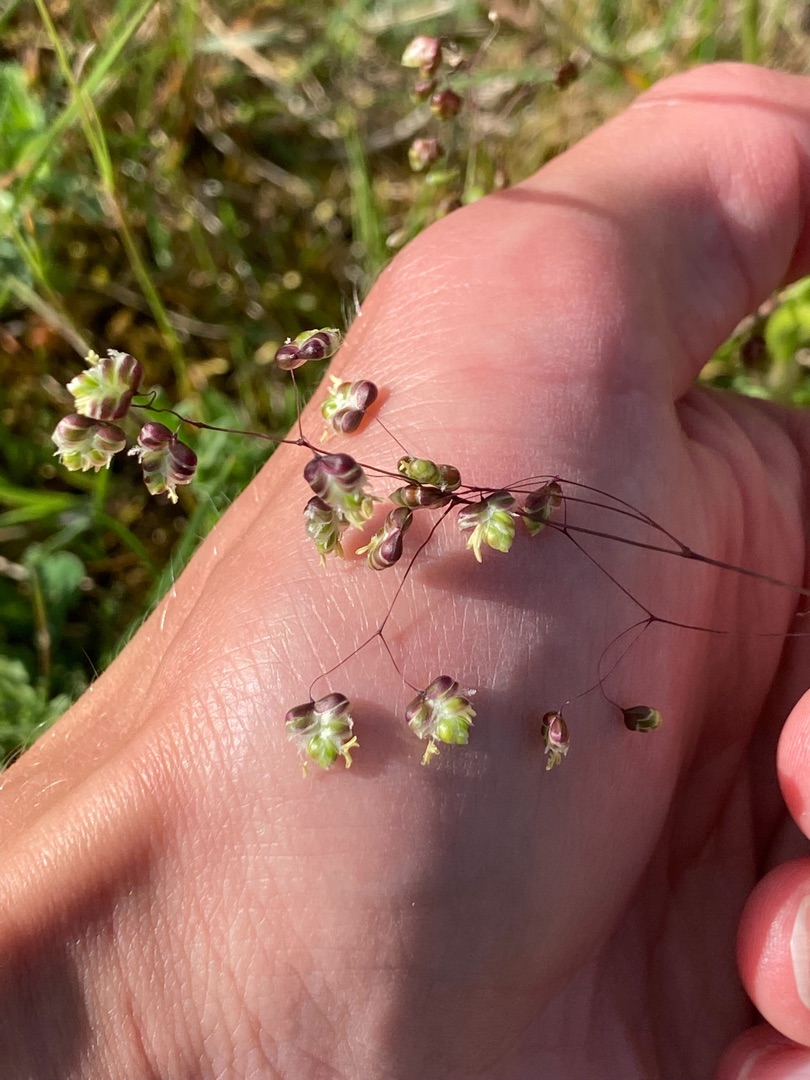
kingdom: Plantae
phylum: Tracheophyta
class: Liliopsida
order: Poales
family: Poaceae
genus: Briza
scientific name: Briza media
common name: Hjertegræs
